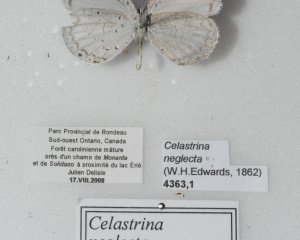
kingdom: Animalia
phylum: Arthropoda
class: Insecta
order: Lepidoptera
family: Lycaenidae
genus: Cyaniris
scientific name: Cyaniris neglecta
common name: Summer Azure
